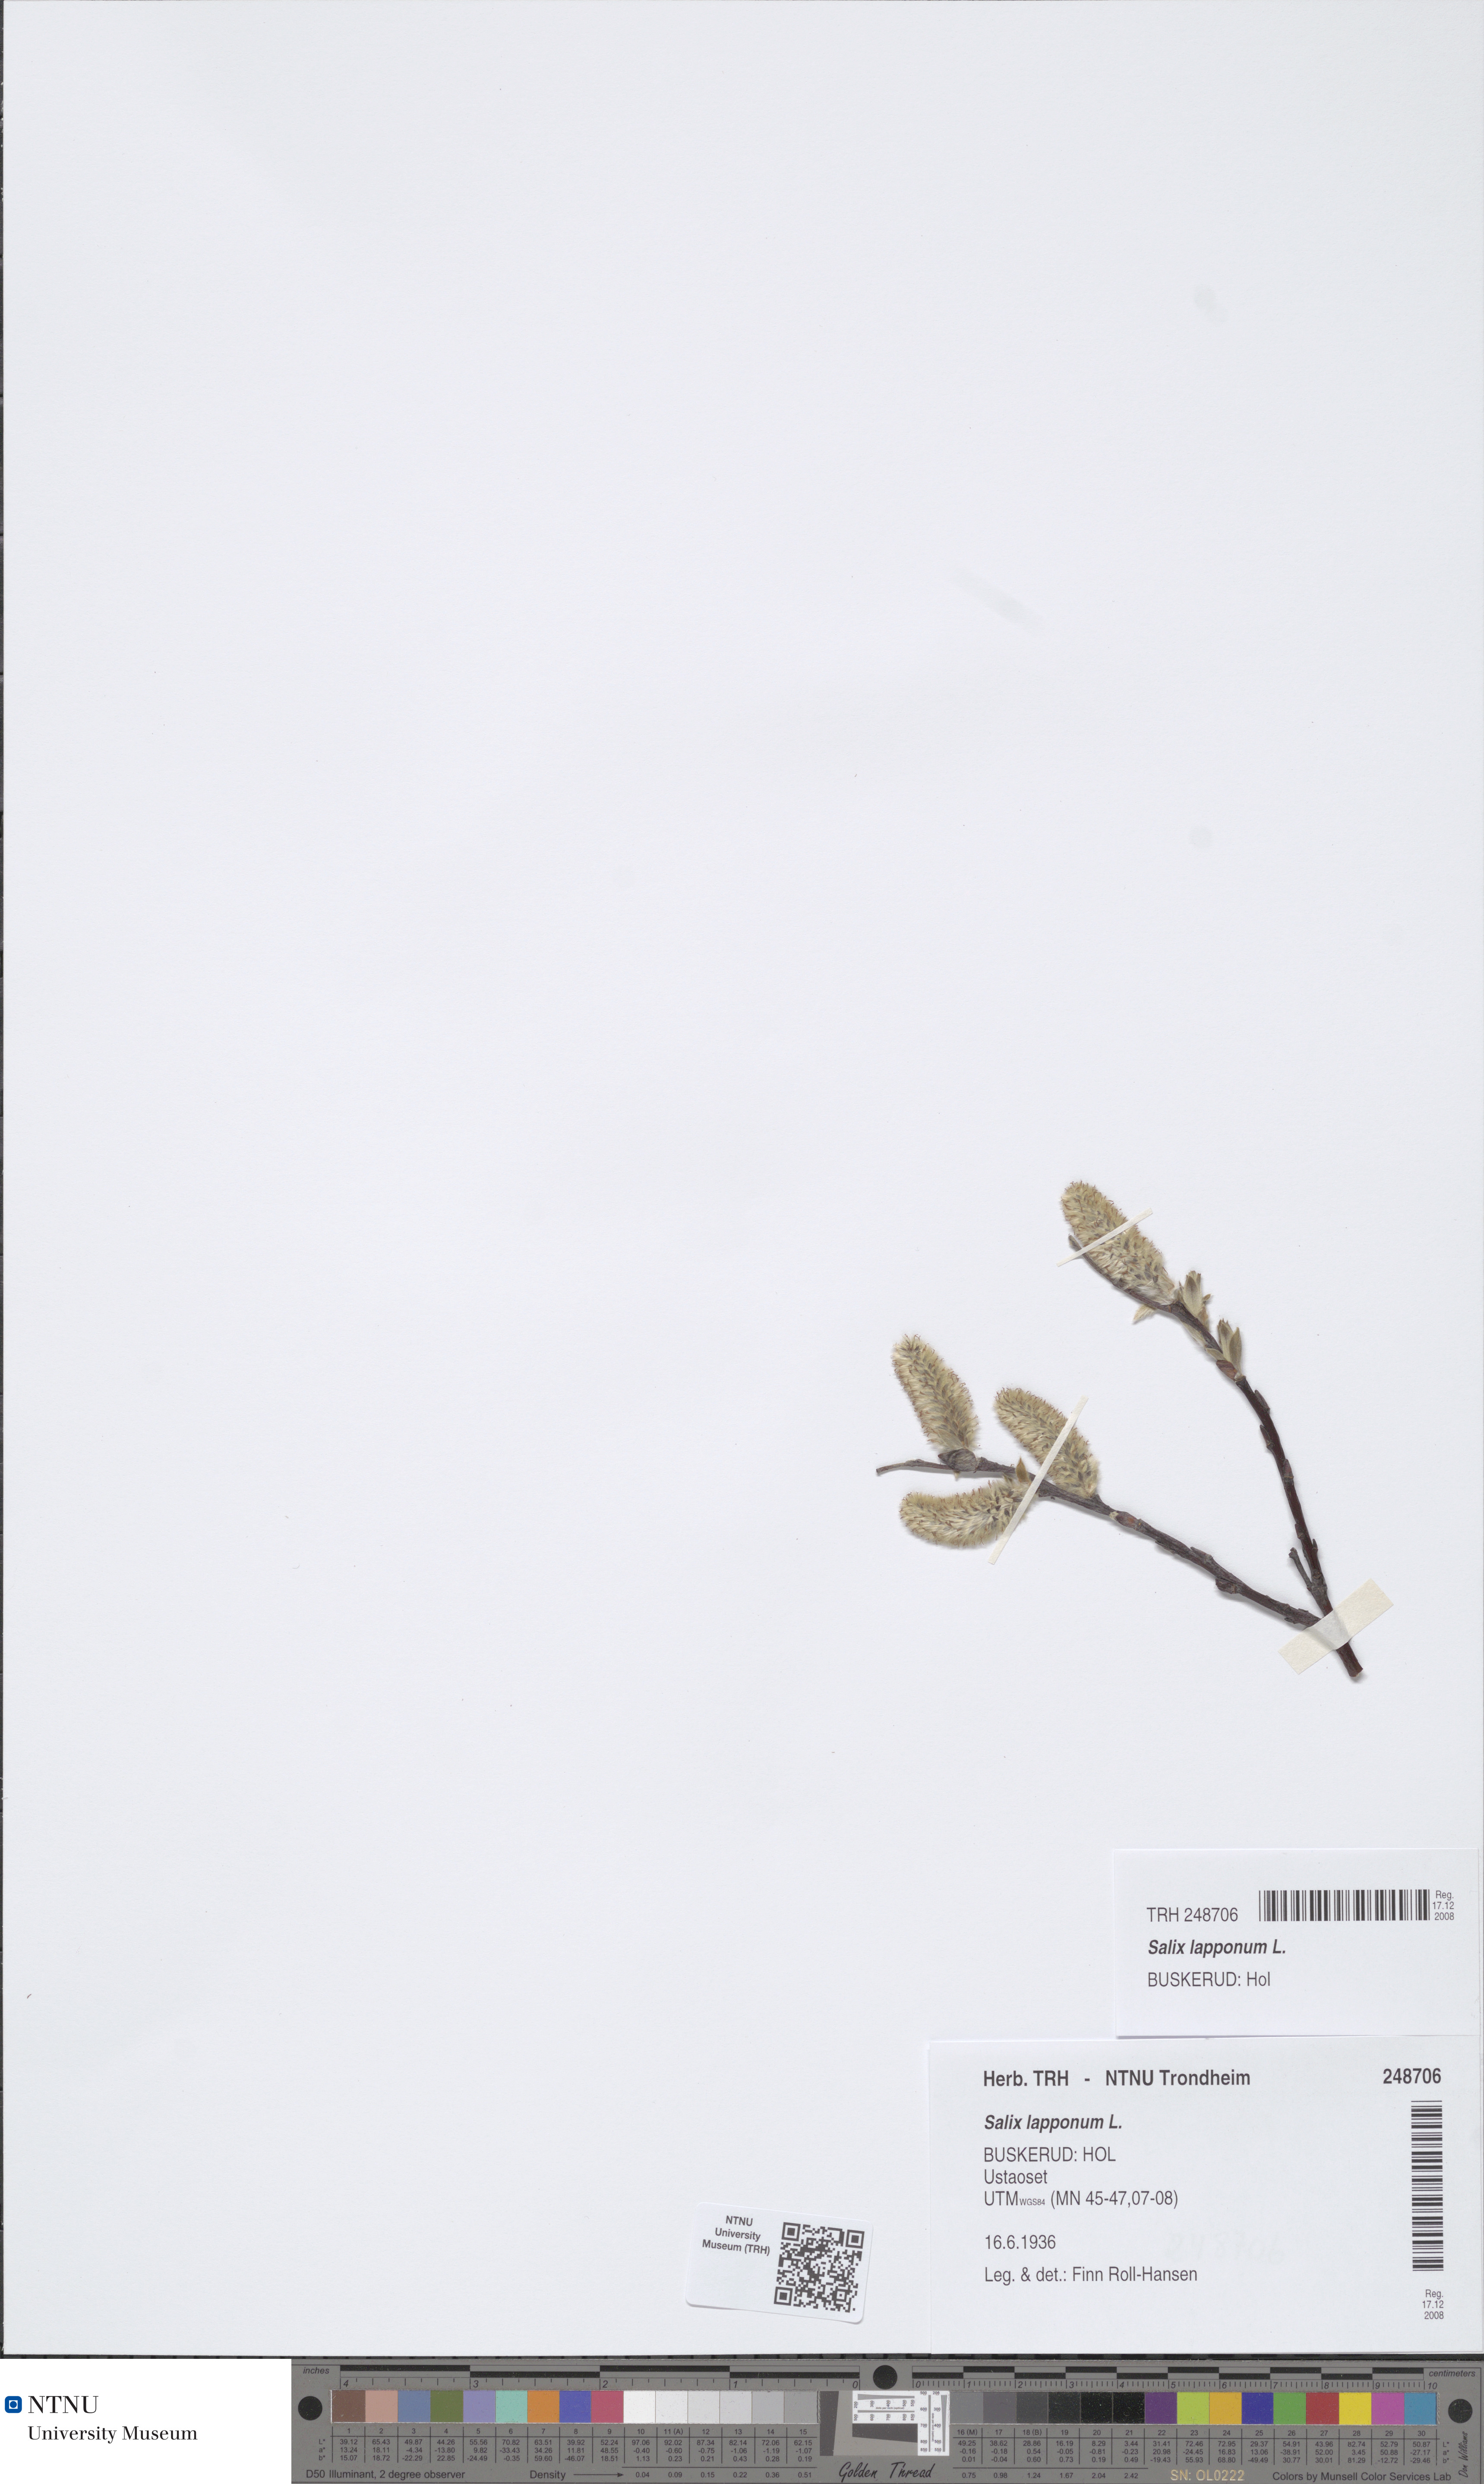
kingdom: Plantae
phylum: Tracheophyta
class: Magnoliopsida
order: Malpighiales
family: Salicaceae
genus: Salix
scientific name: Salix lapponum
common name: Downy willow
